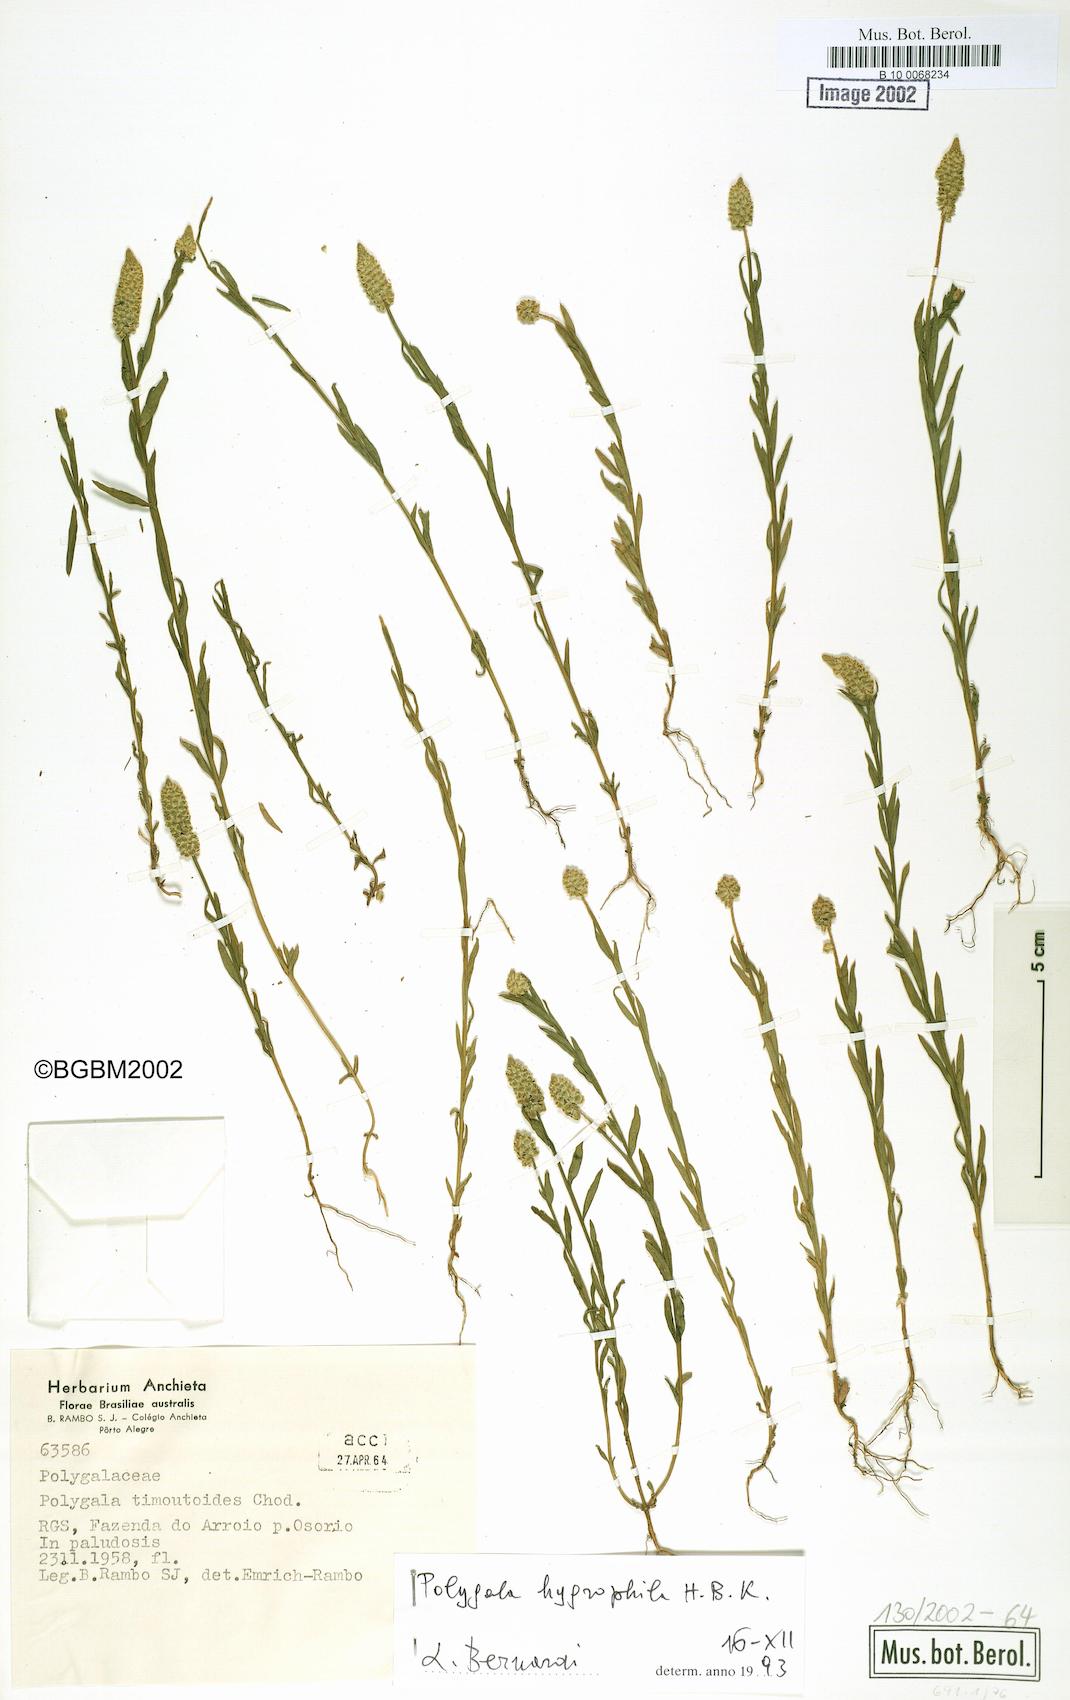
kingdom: Plantae
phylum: Tracheophyta
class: Magnoliopsida
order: Fabales
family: Polygalaceae
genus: Polygala
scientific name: Polygala hygrophila
